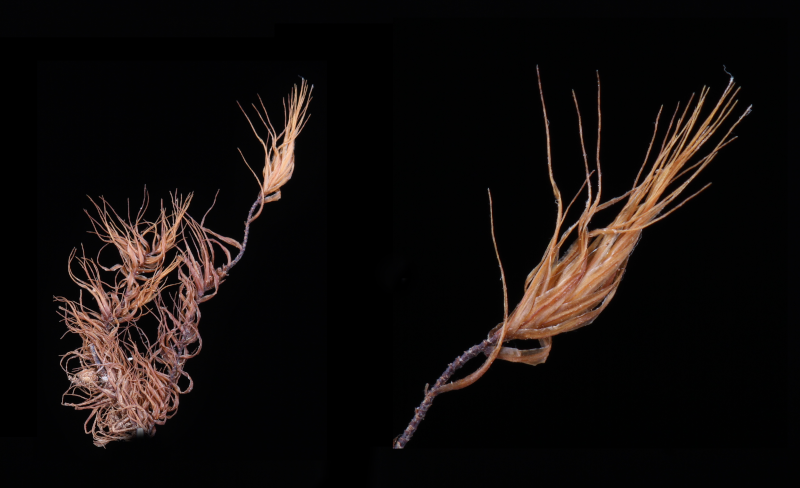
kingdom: Plantae
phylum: Bryophyta
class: Bryopsida
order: Dicranales
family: Dicranaceae
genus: Leucoloma
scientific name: Leucoloma molle
